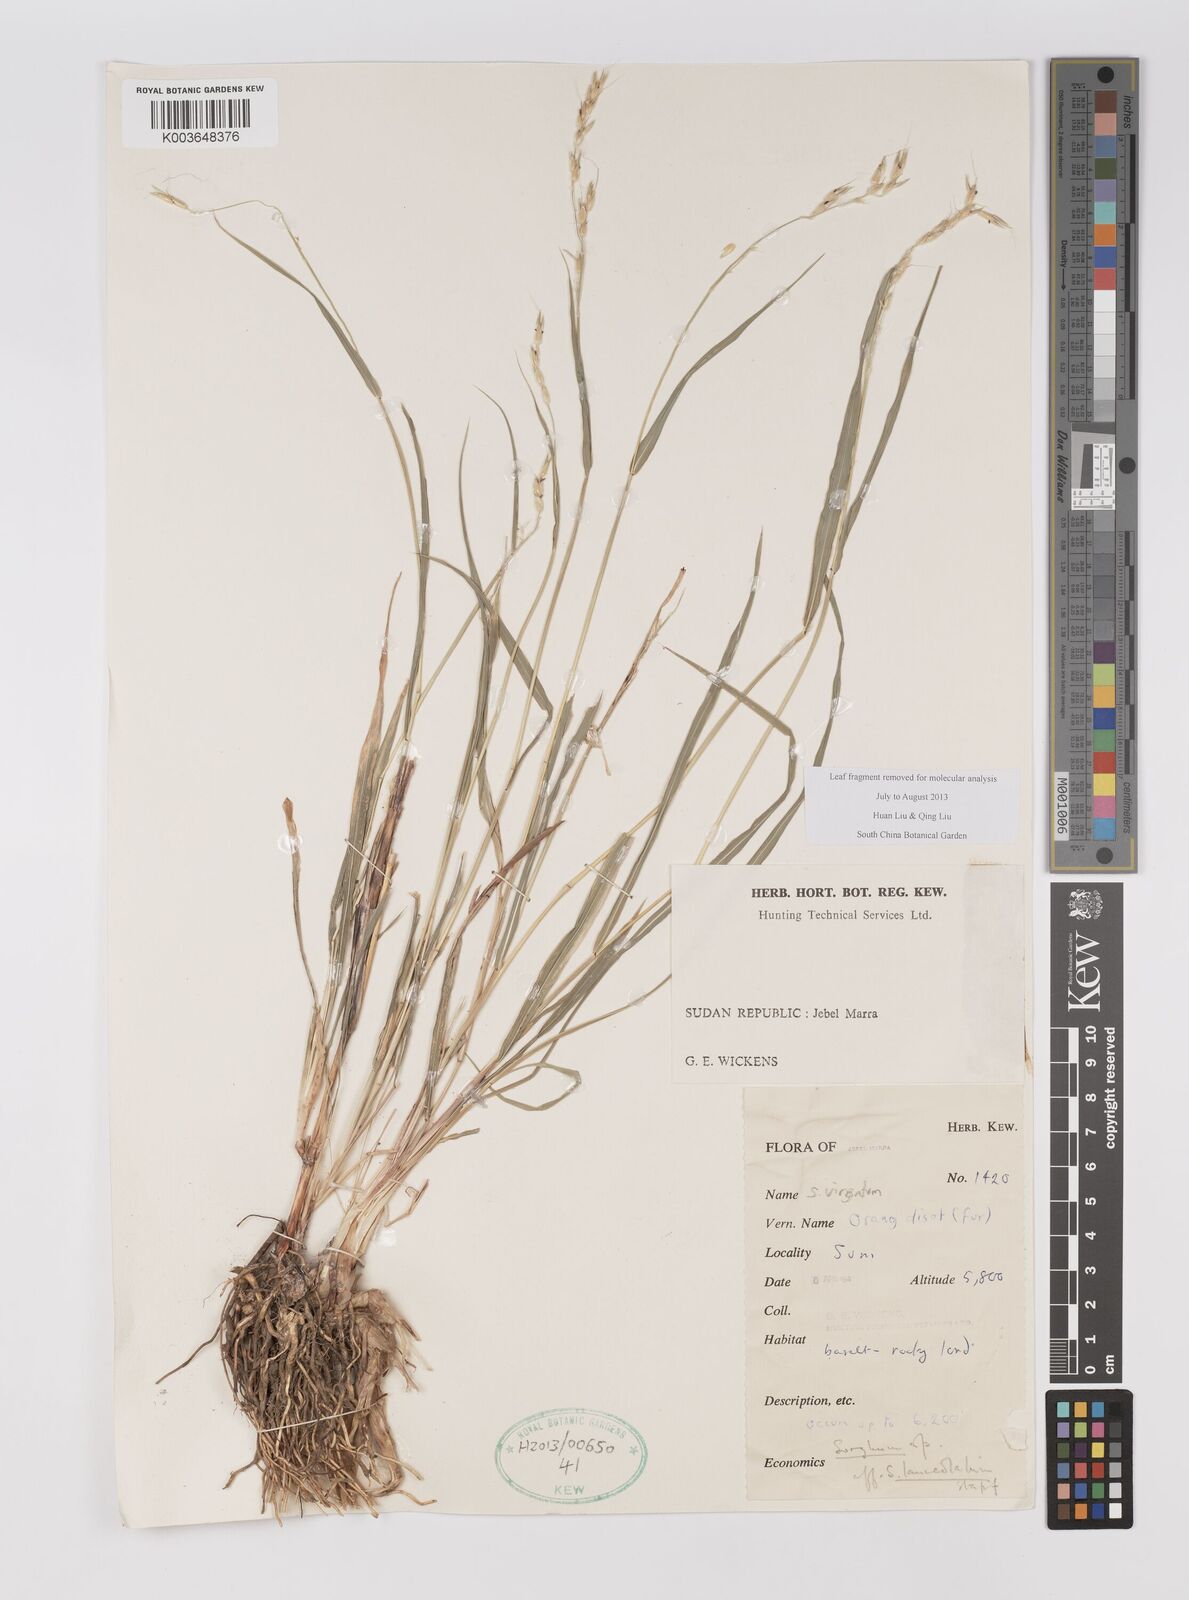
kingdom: Plantae
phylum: Tracheophyta
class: Liliopsida
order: Poales
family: Poaceae
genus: Sorghum
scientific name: Sorghum virgatum
